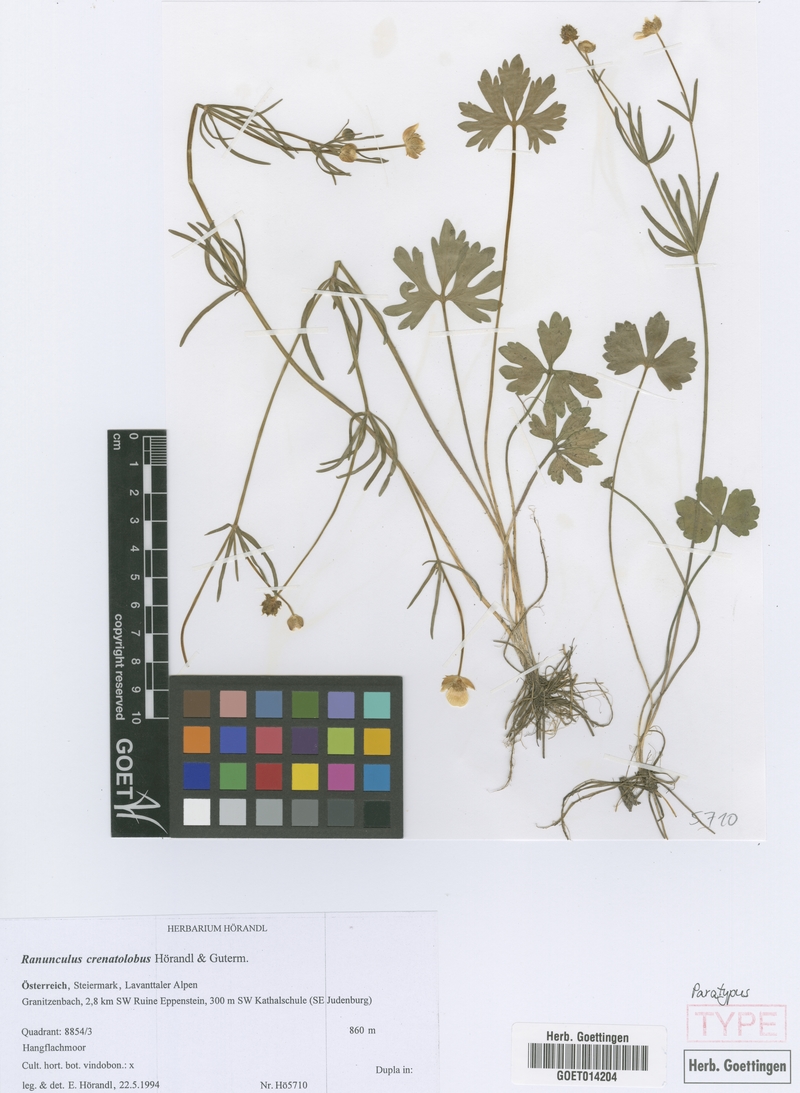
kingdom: Plantae
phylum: Tracheophyta
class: Magnoliopsida
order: Ranunculales
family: Ranunculaceae
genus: Ranunculus
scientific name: Ranunculus crenatolobus
